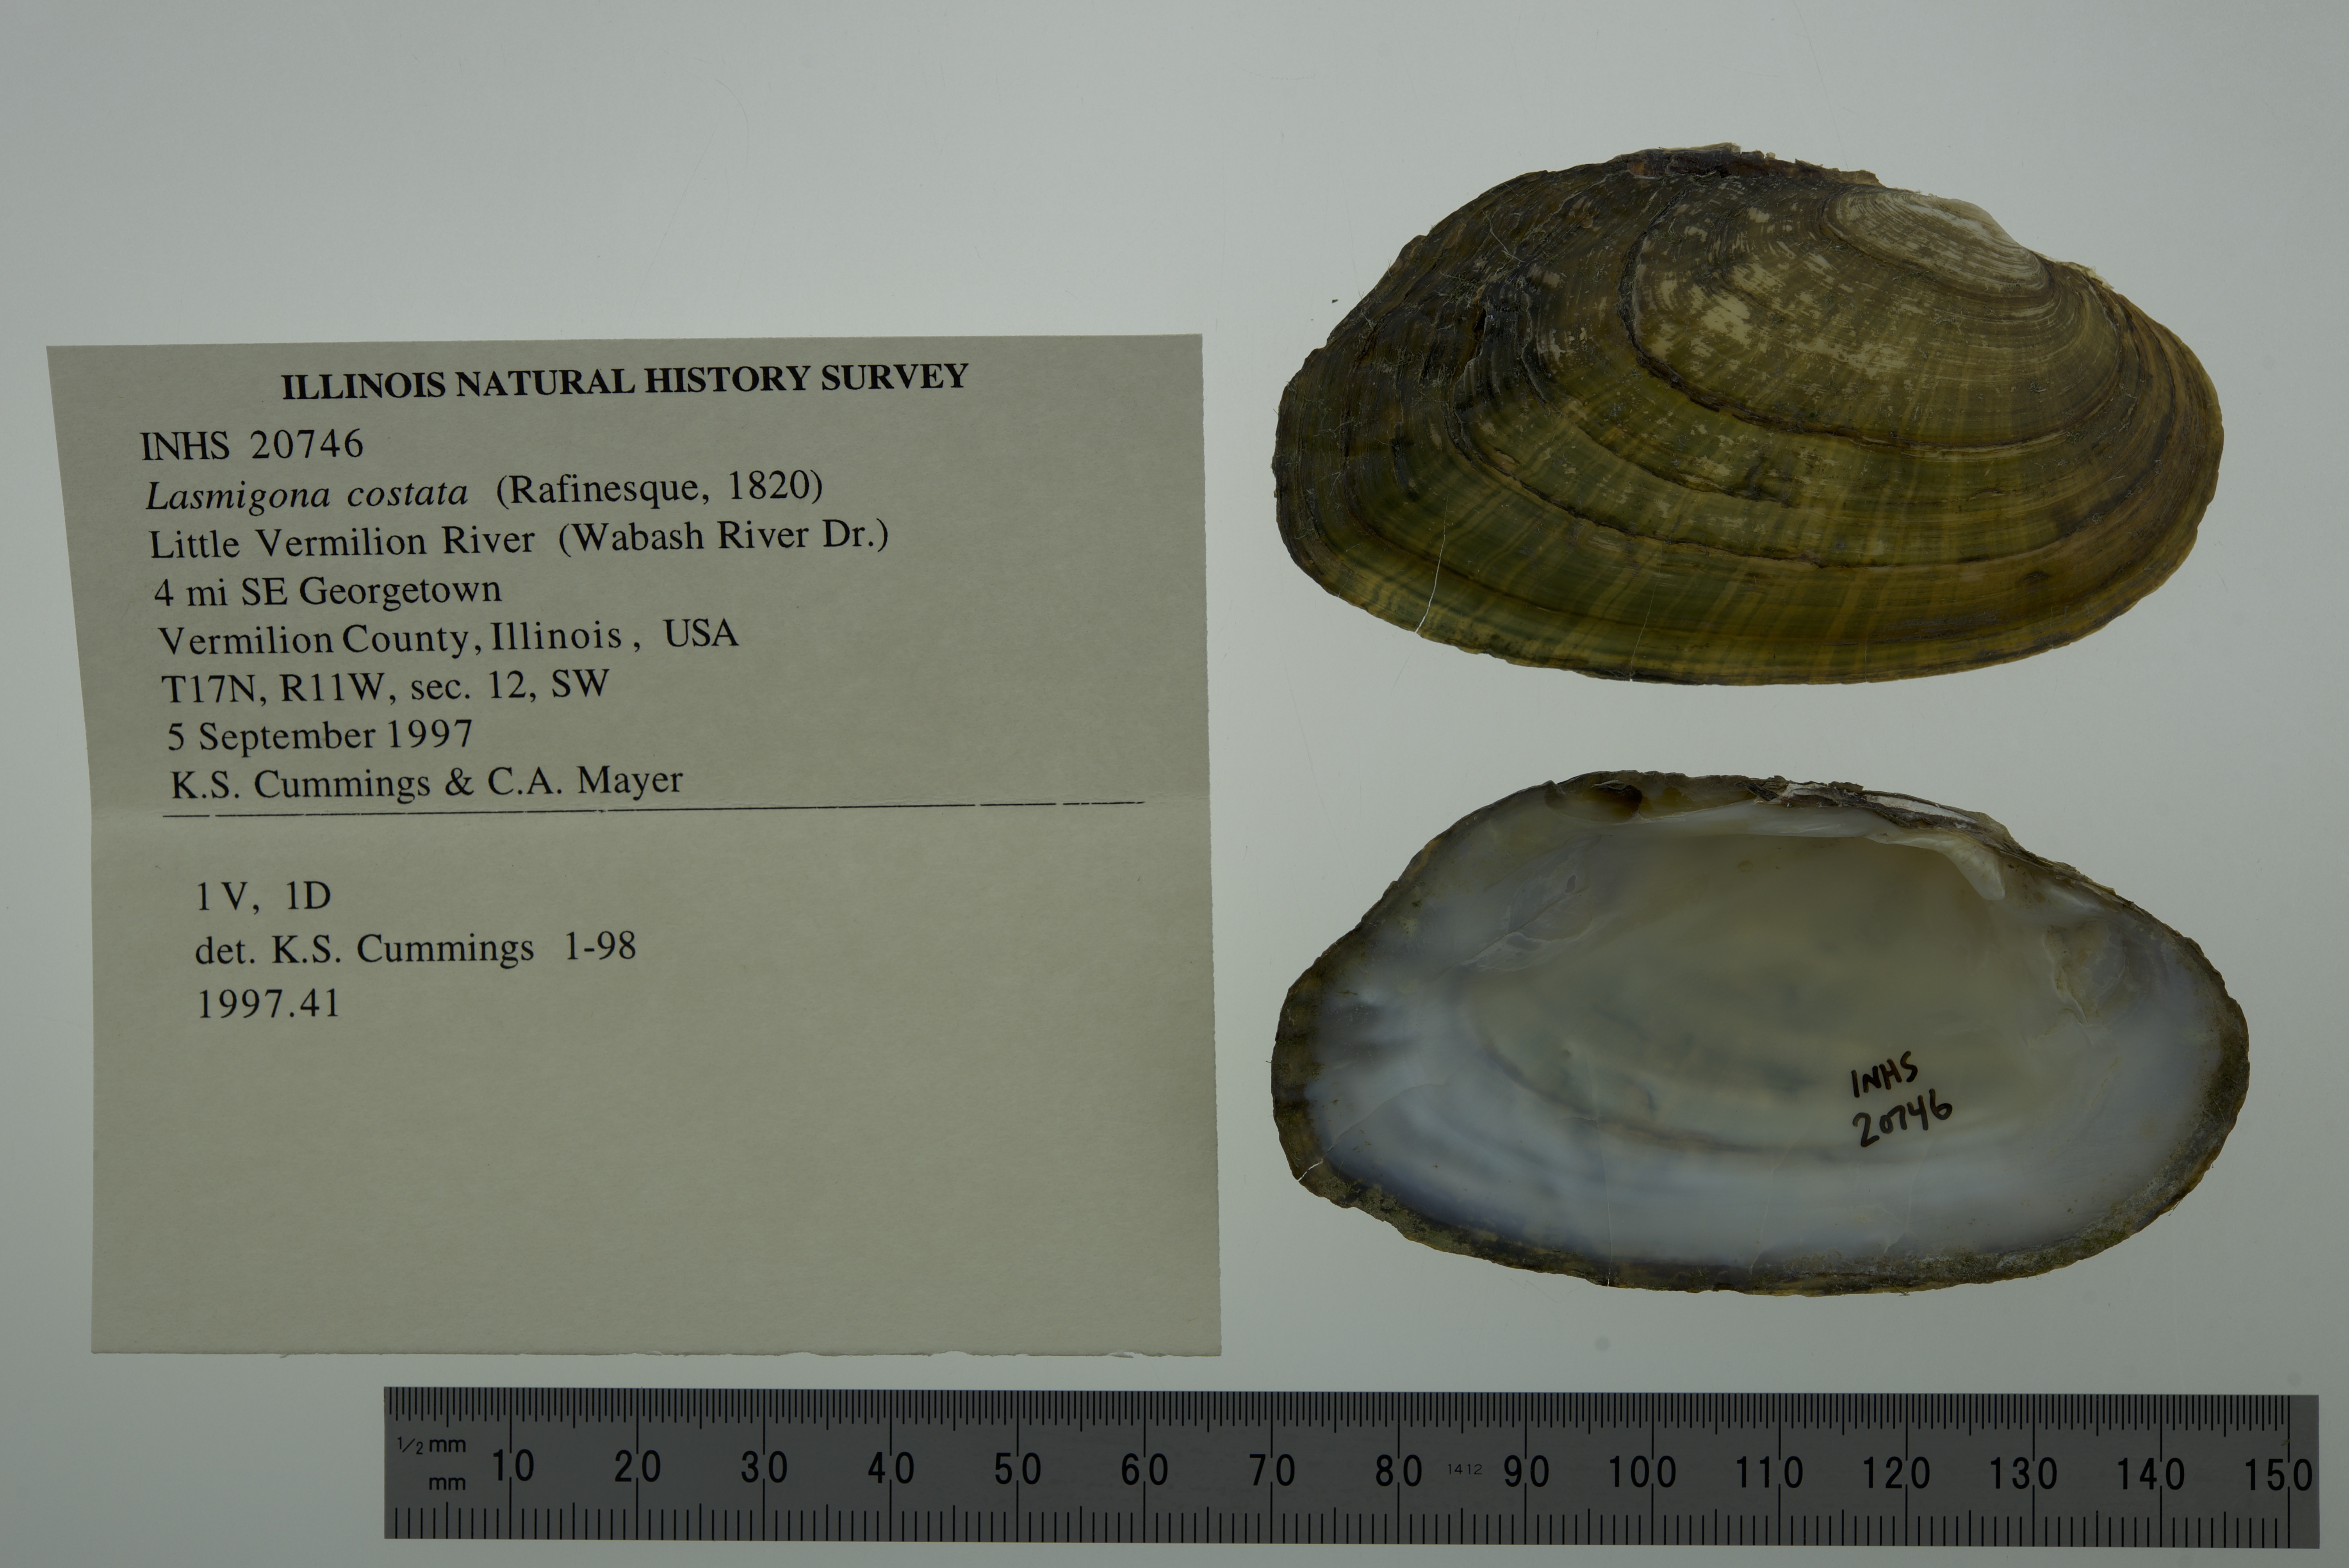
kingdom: Animalia
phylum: Mollusca
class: Bivalvia
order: Unionida
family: Unionidae
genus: Lasmigona
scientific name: Lasmigona costata
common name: Flutedshell
